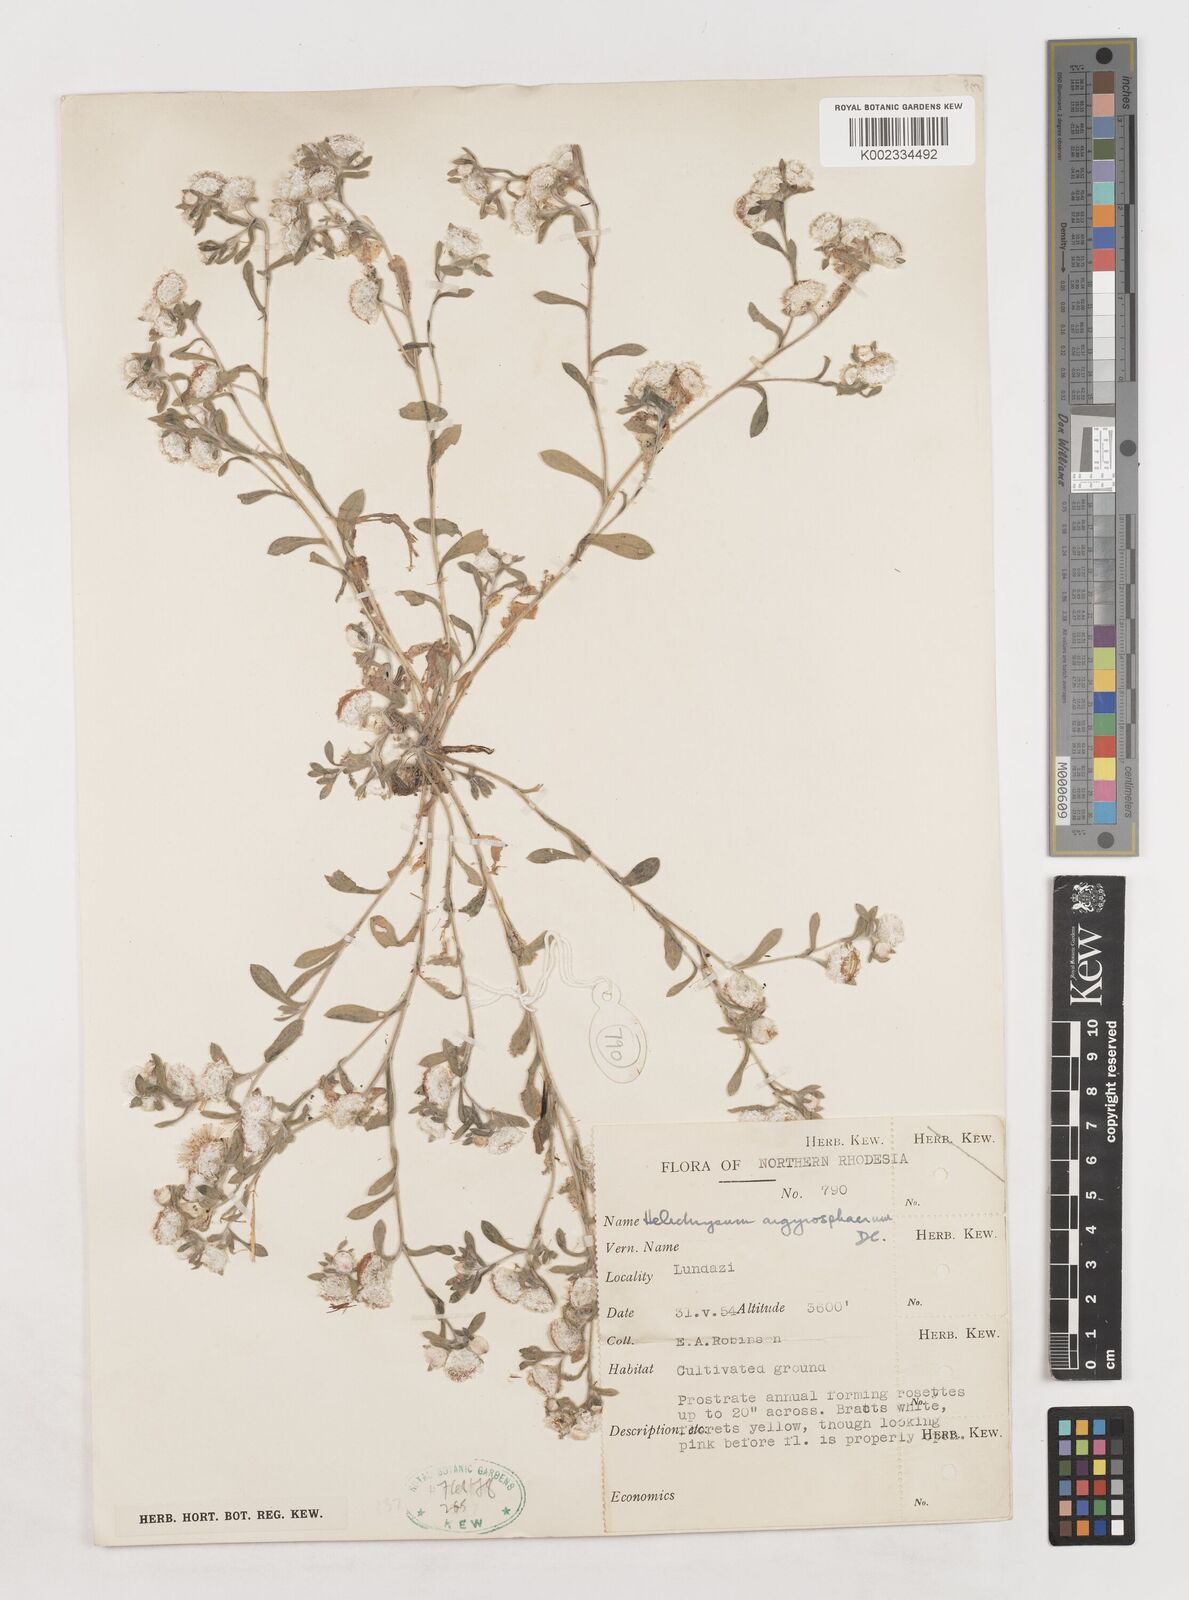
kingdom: Plantae
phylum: Tracheophyta
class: Magnoliopsida
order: Asterales
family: Asteraceae
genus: Helichrysum
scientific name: Helichrysum argyrosphaerum
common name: Wild everlasting
